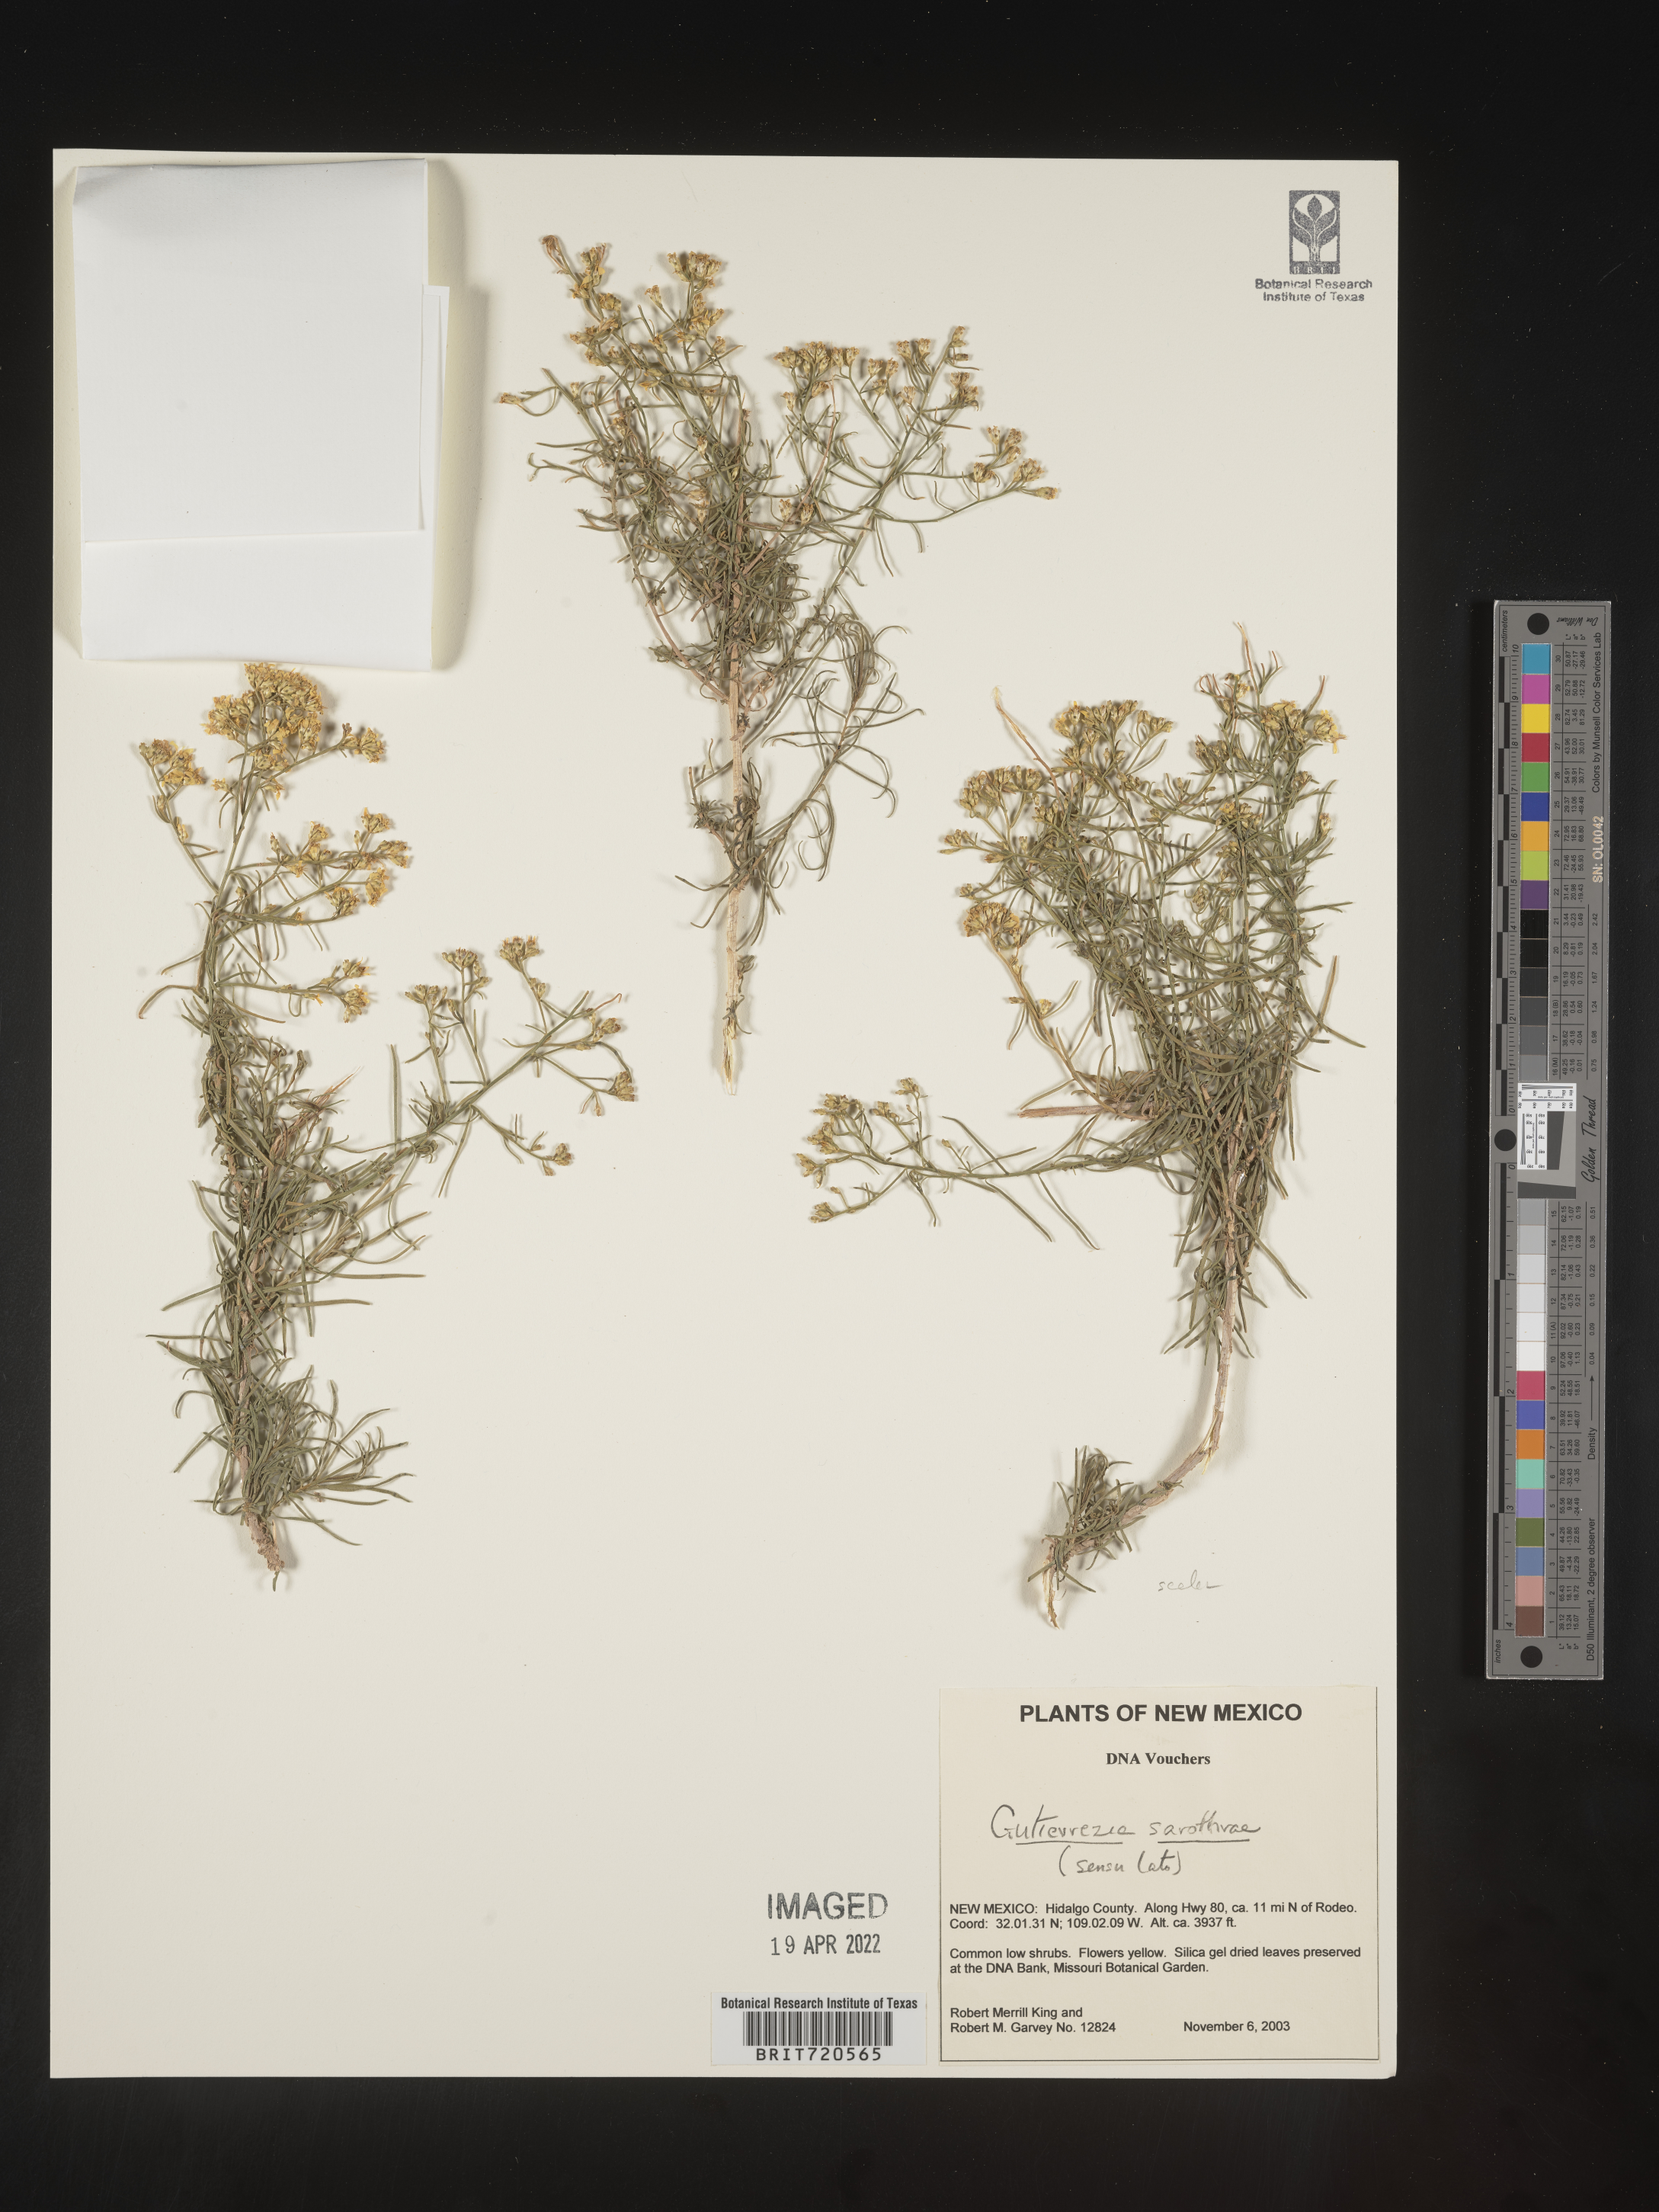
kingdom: Plantae
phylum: Tracheophyta
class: Magnoliopsida
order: Asterales
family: Asteraceae
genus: Gutierrezia
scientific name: Gutierrezia sarothrae
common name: Broom snakeweed
